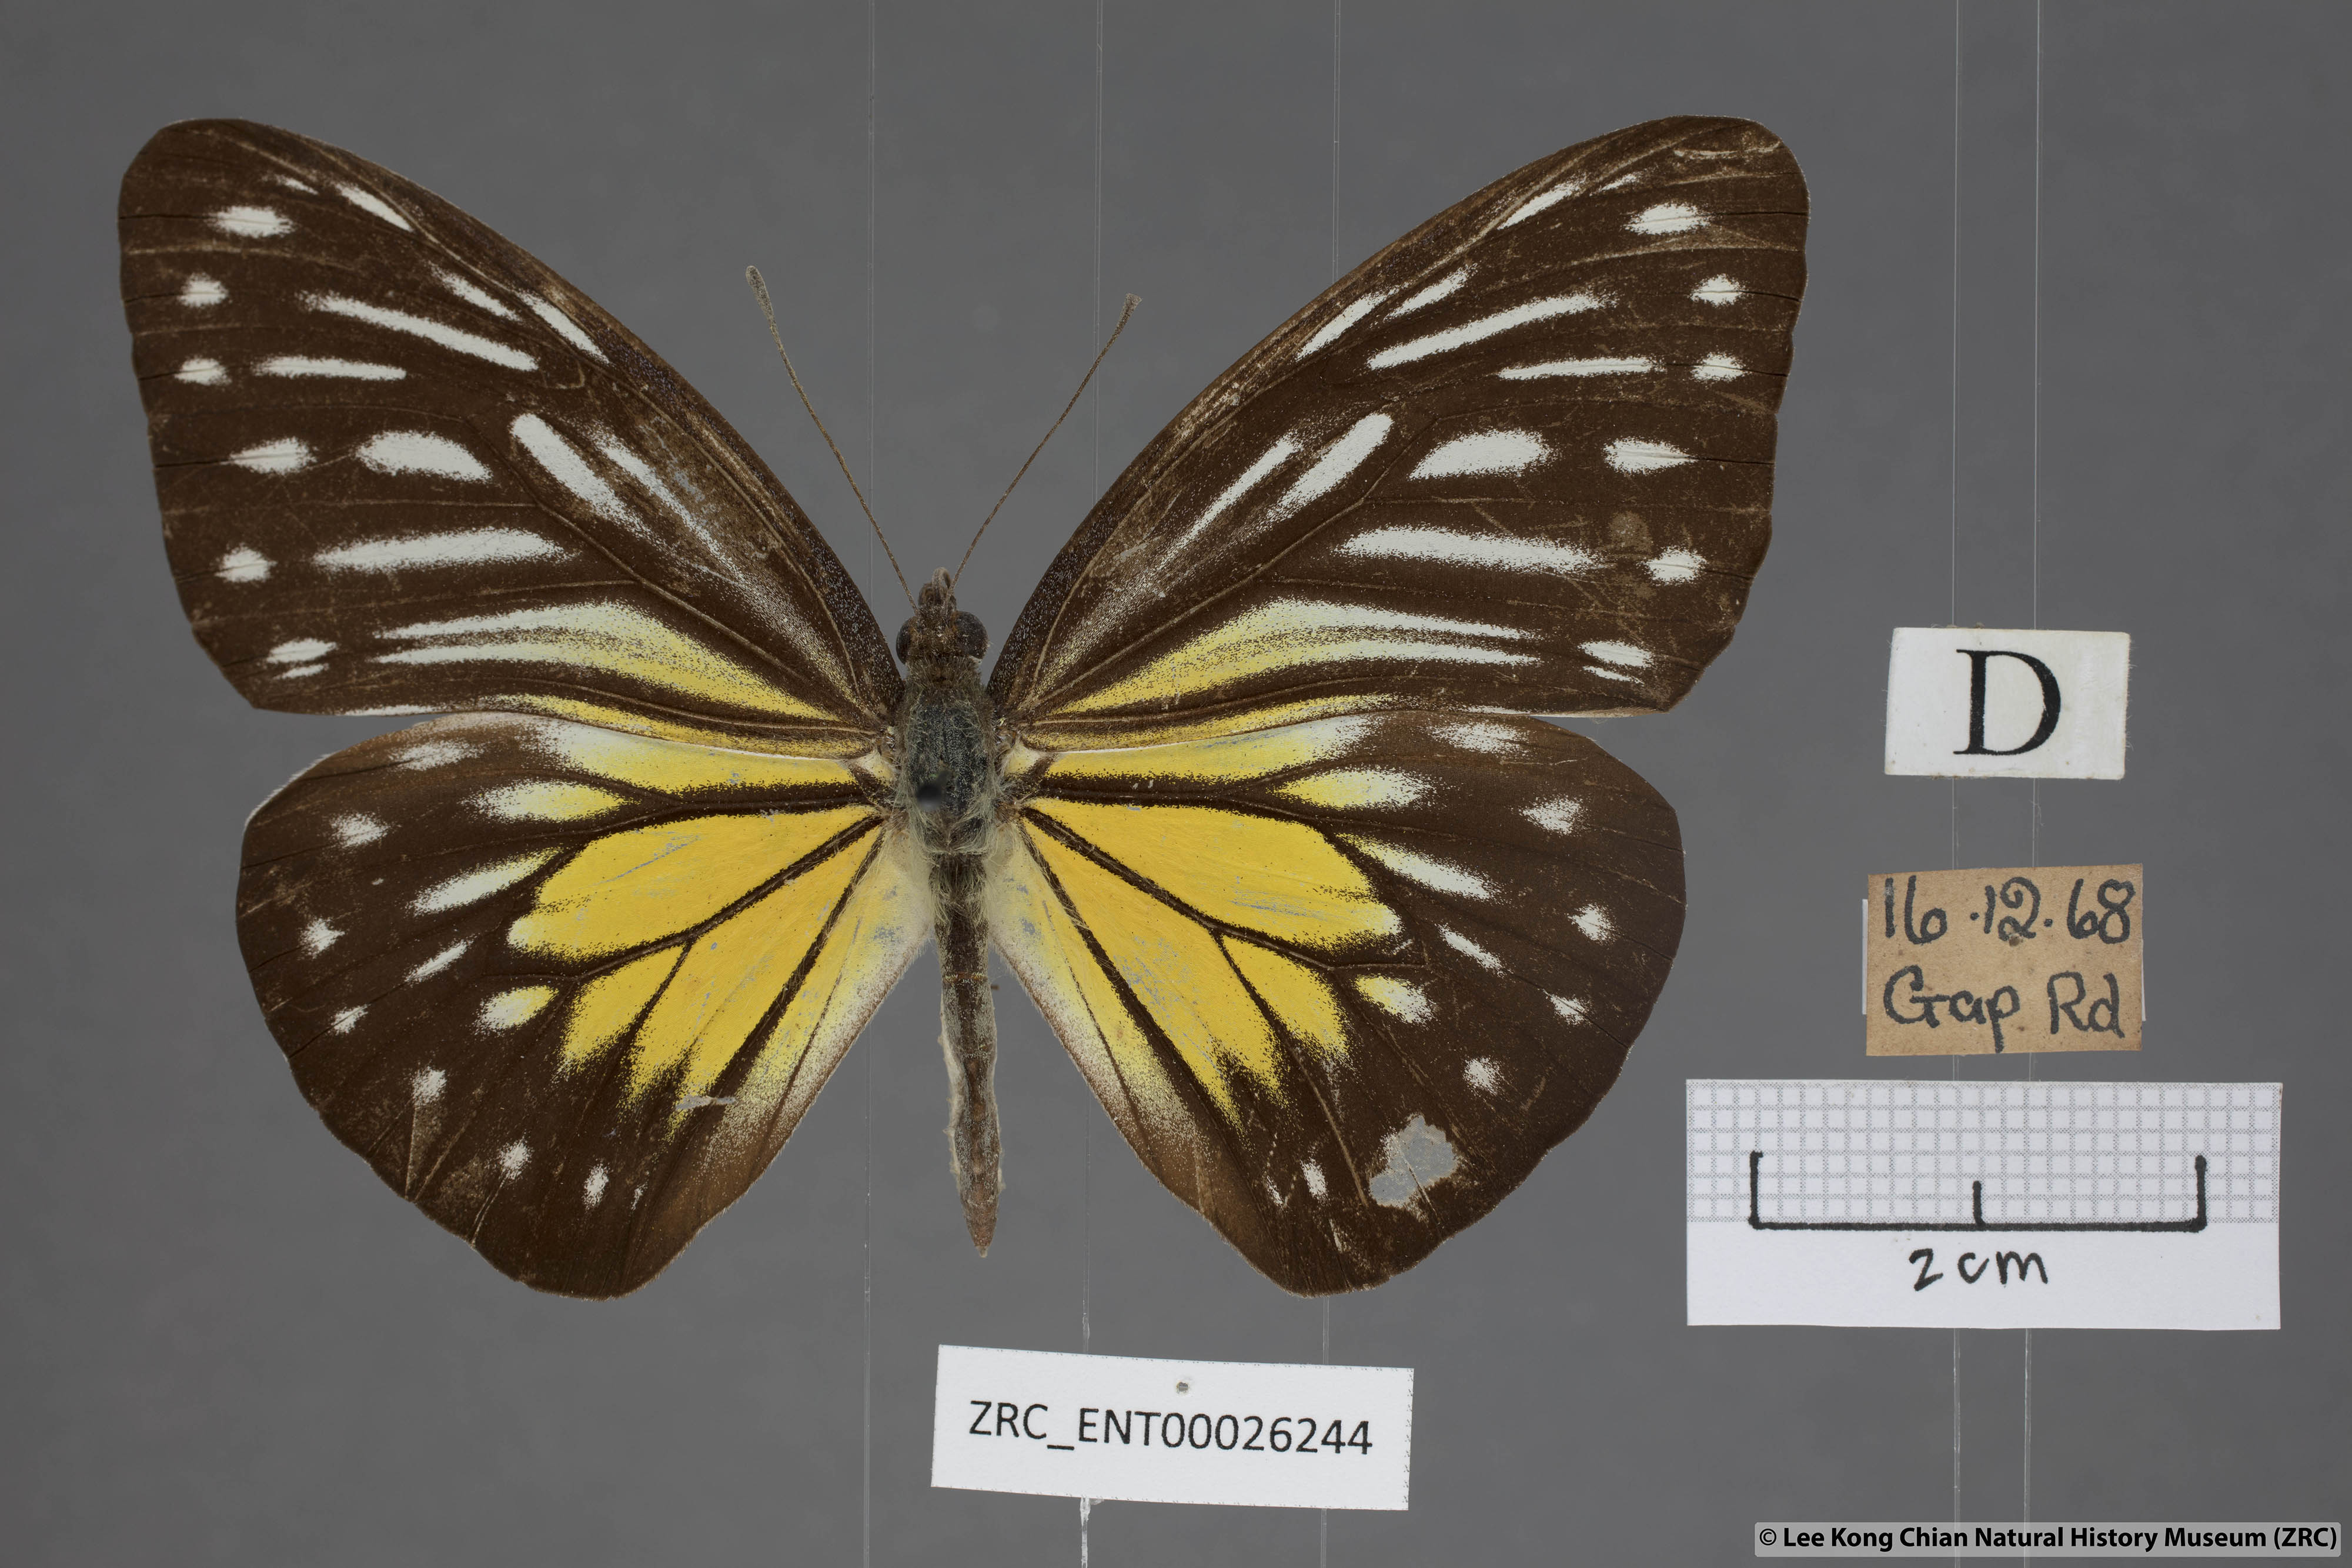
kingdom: Animalia
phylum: Arthropoda
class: Insecta
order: Lepidoptera
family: Pieridae
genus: Pareronia
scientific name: Pareronia valeria
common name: Common wanderer?
